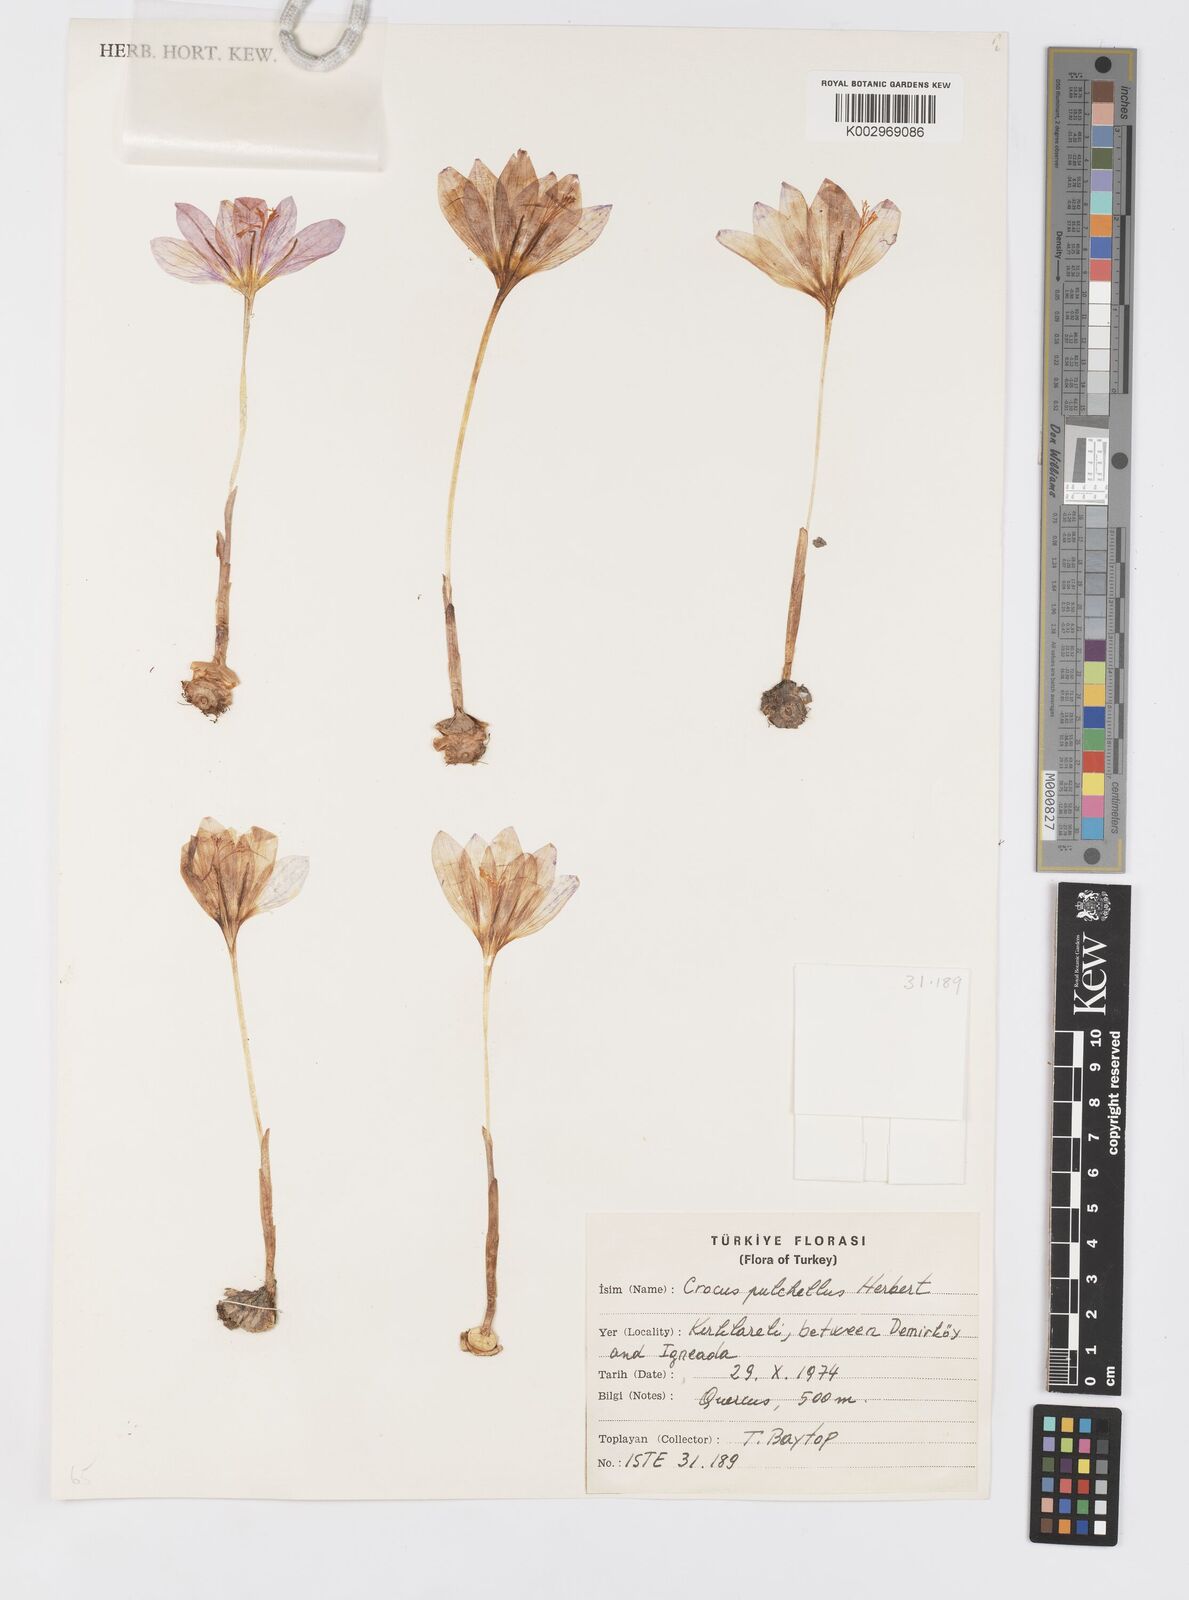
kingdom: Plantae
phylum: Tracheophyta
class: Liliopsida
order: Asparagales
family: Iridaceae
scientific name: Iridaceae
